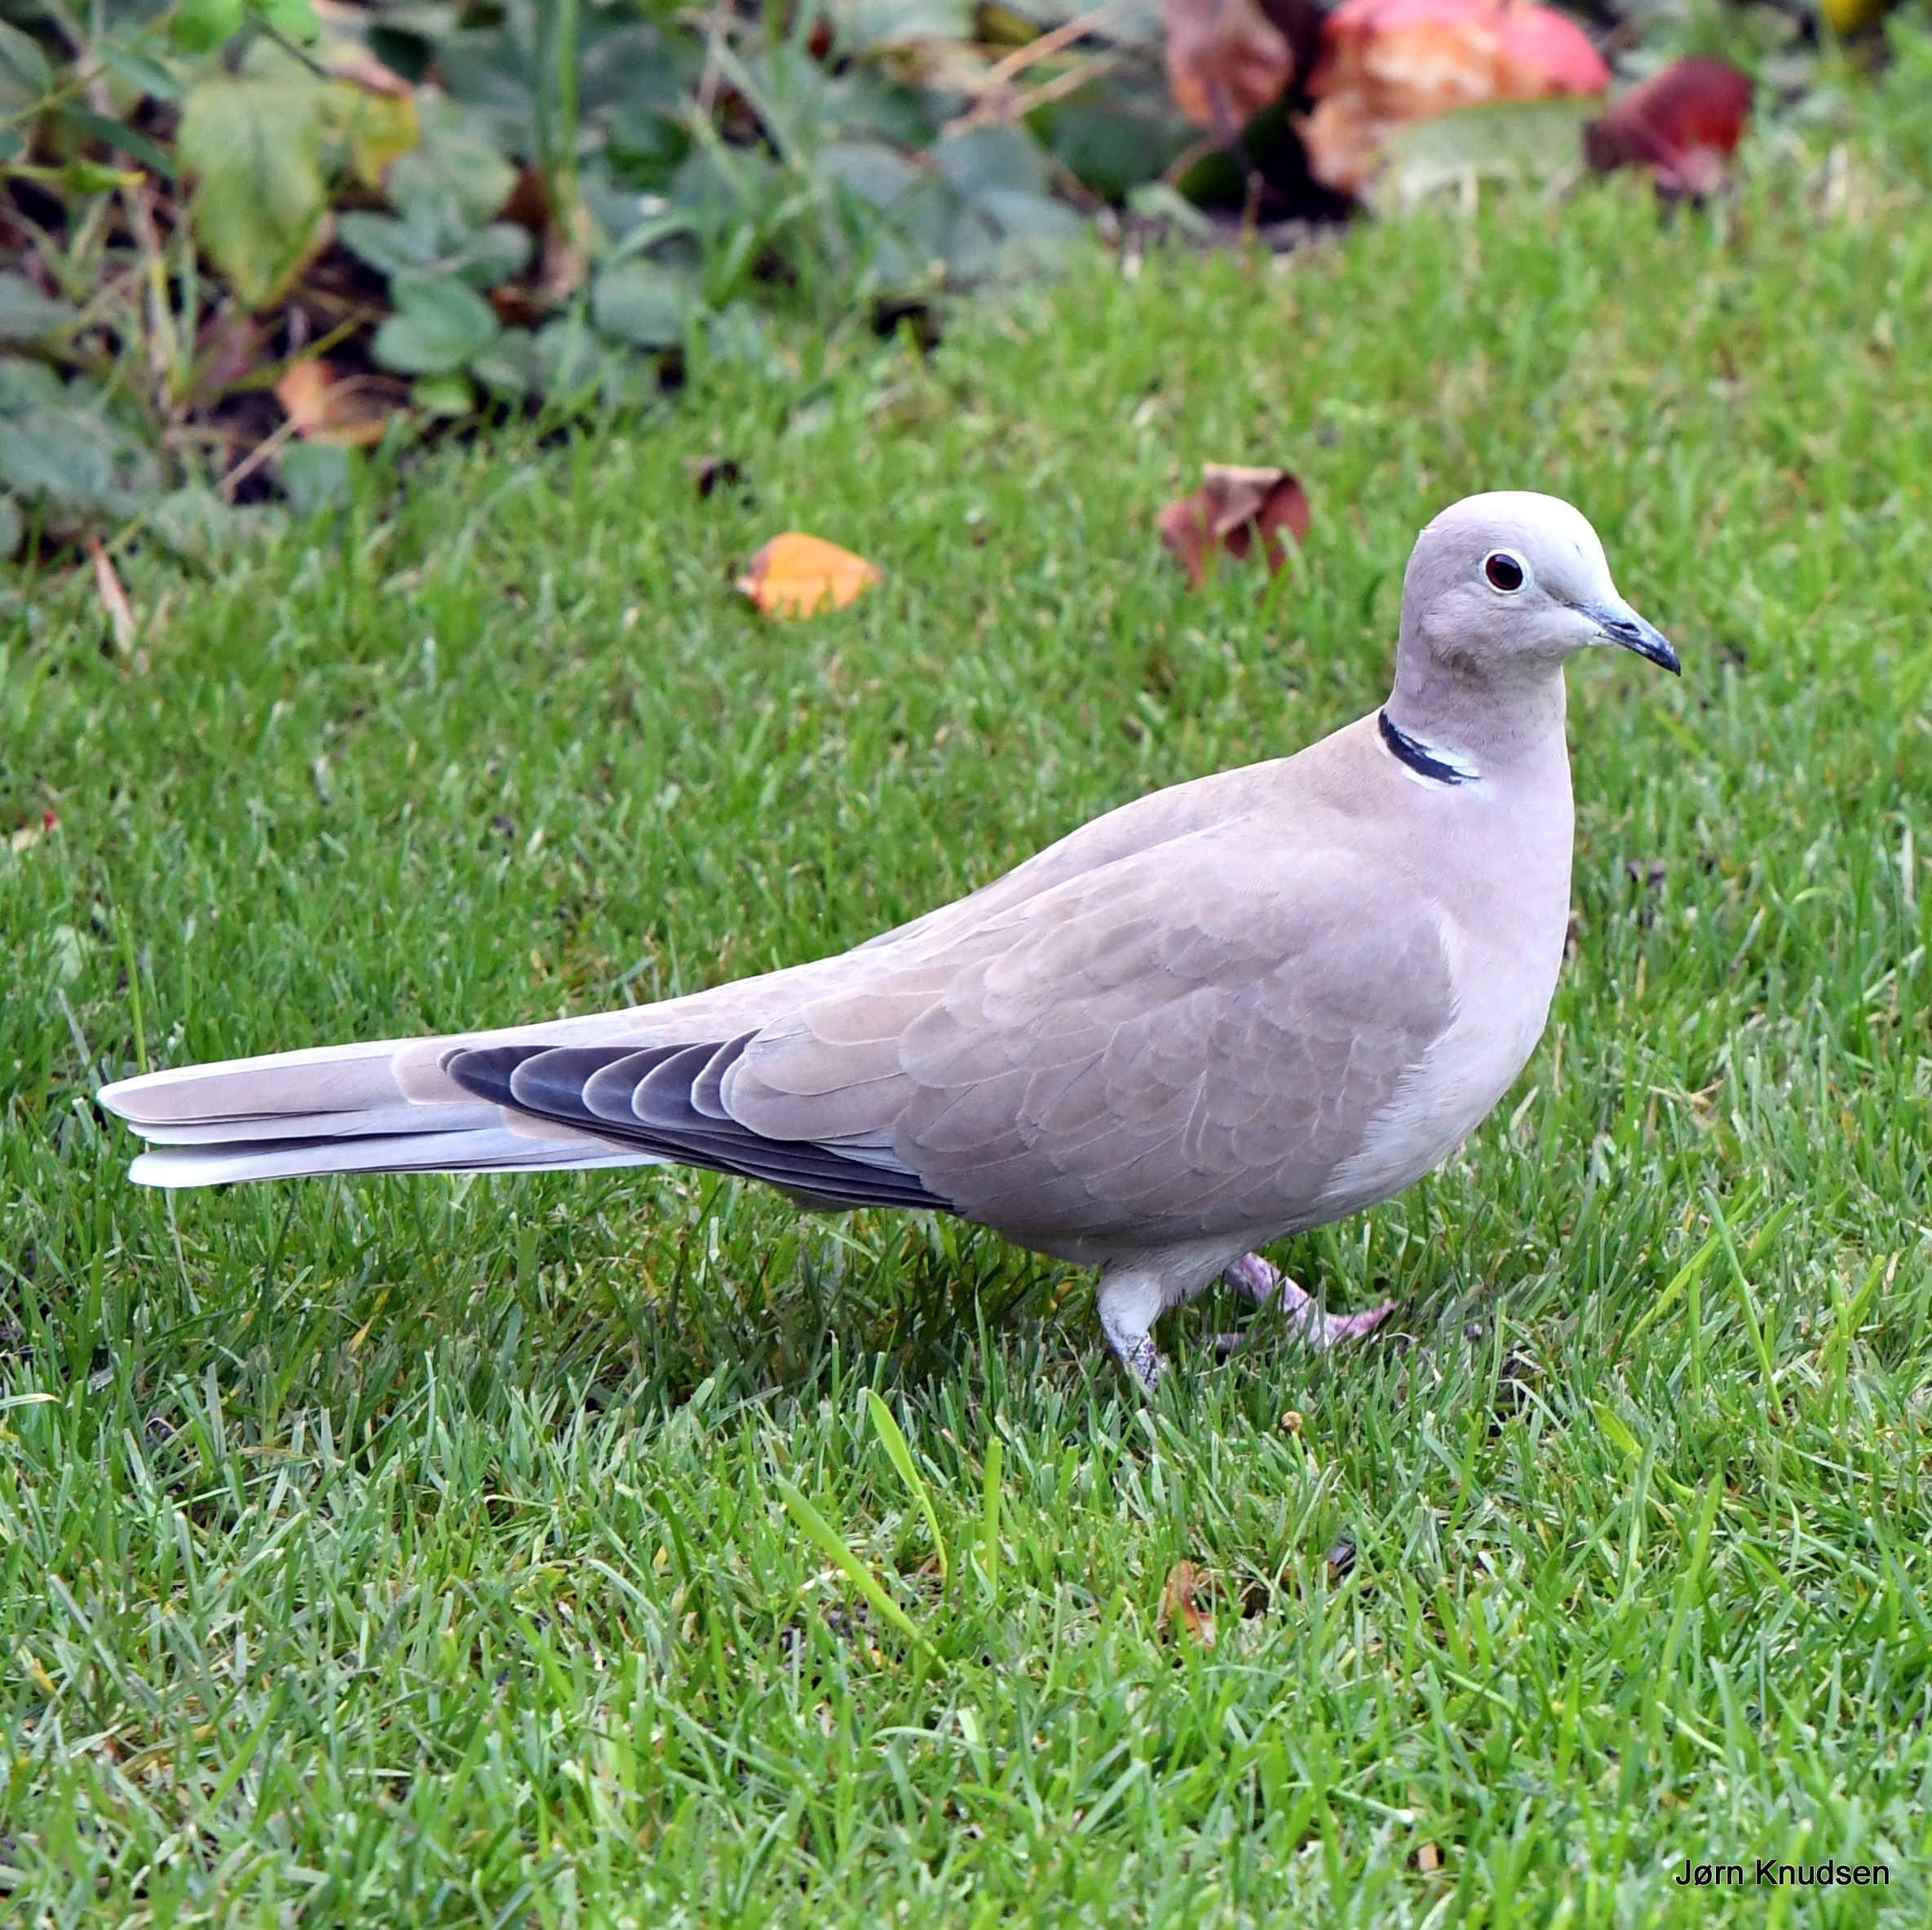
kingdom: Animalia
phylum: Chordata
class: Aves
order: Columbiformes
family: Columbidae
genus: Streptopelia
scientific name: Streptopelia decaocto
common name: Tyrkerdue
